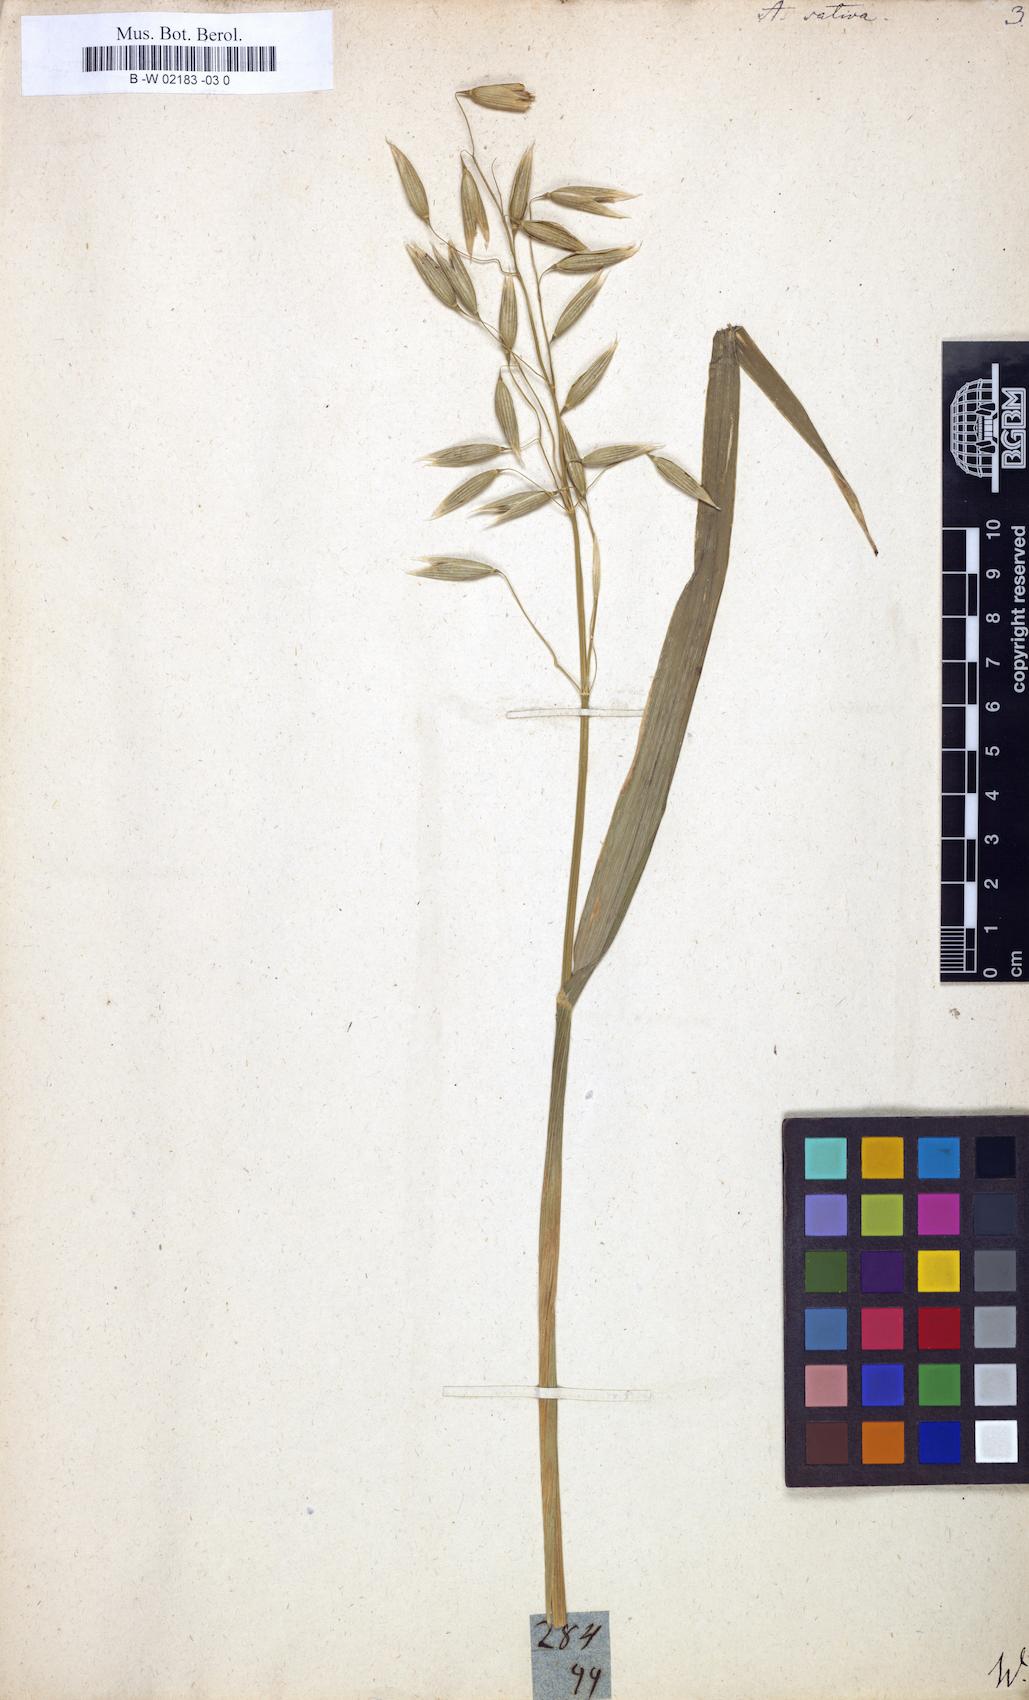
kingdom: Plantae
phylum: Tracheophyta
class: Liliopsida
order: Poales
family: Poaceae
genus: Avena
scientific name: Avena sativa
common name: Oat
